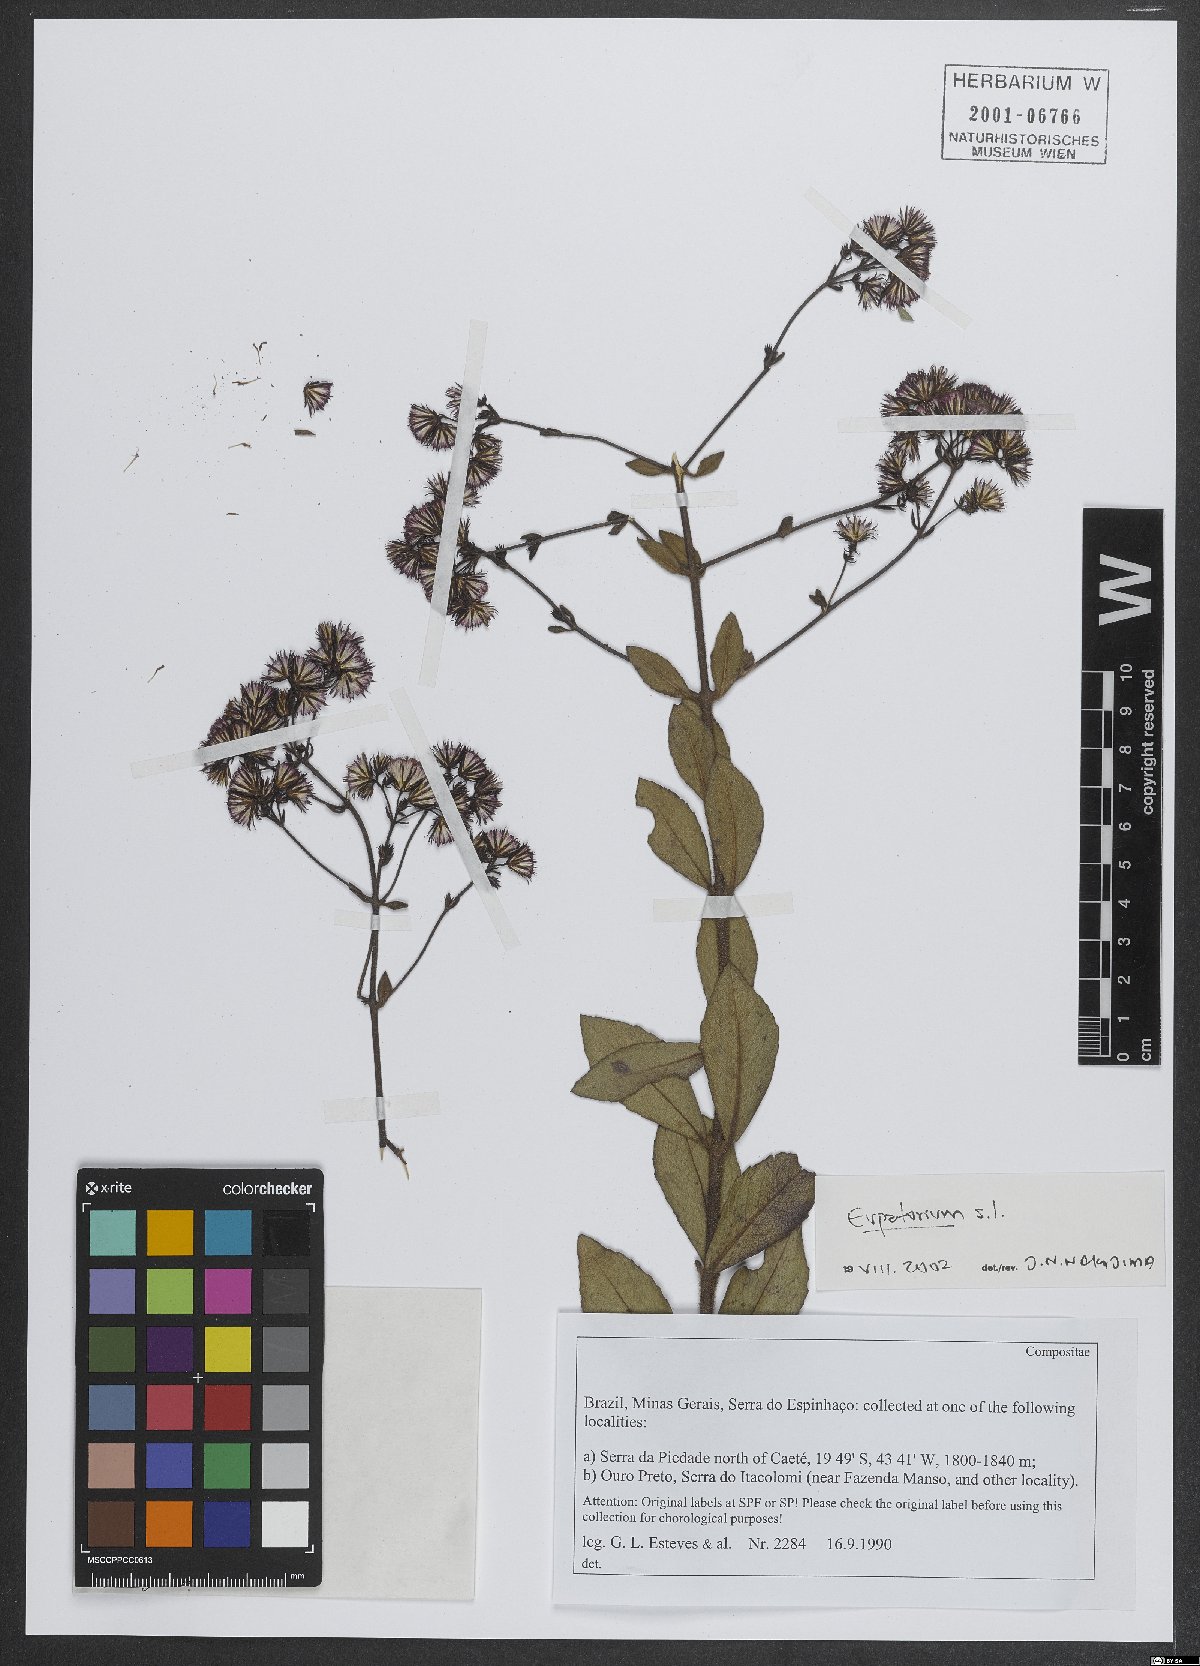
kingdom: Plantae
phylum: Tracheophyta
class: Magnoliopsida
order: Asterales
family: Asteraceae
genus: Eupatorium
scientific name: Eupatorium
